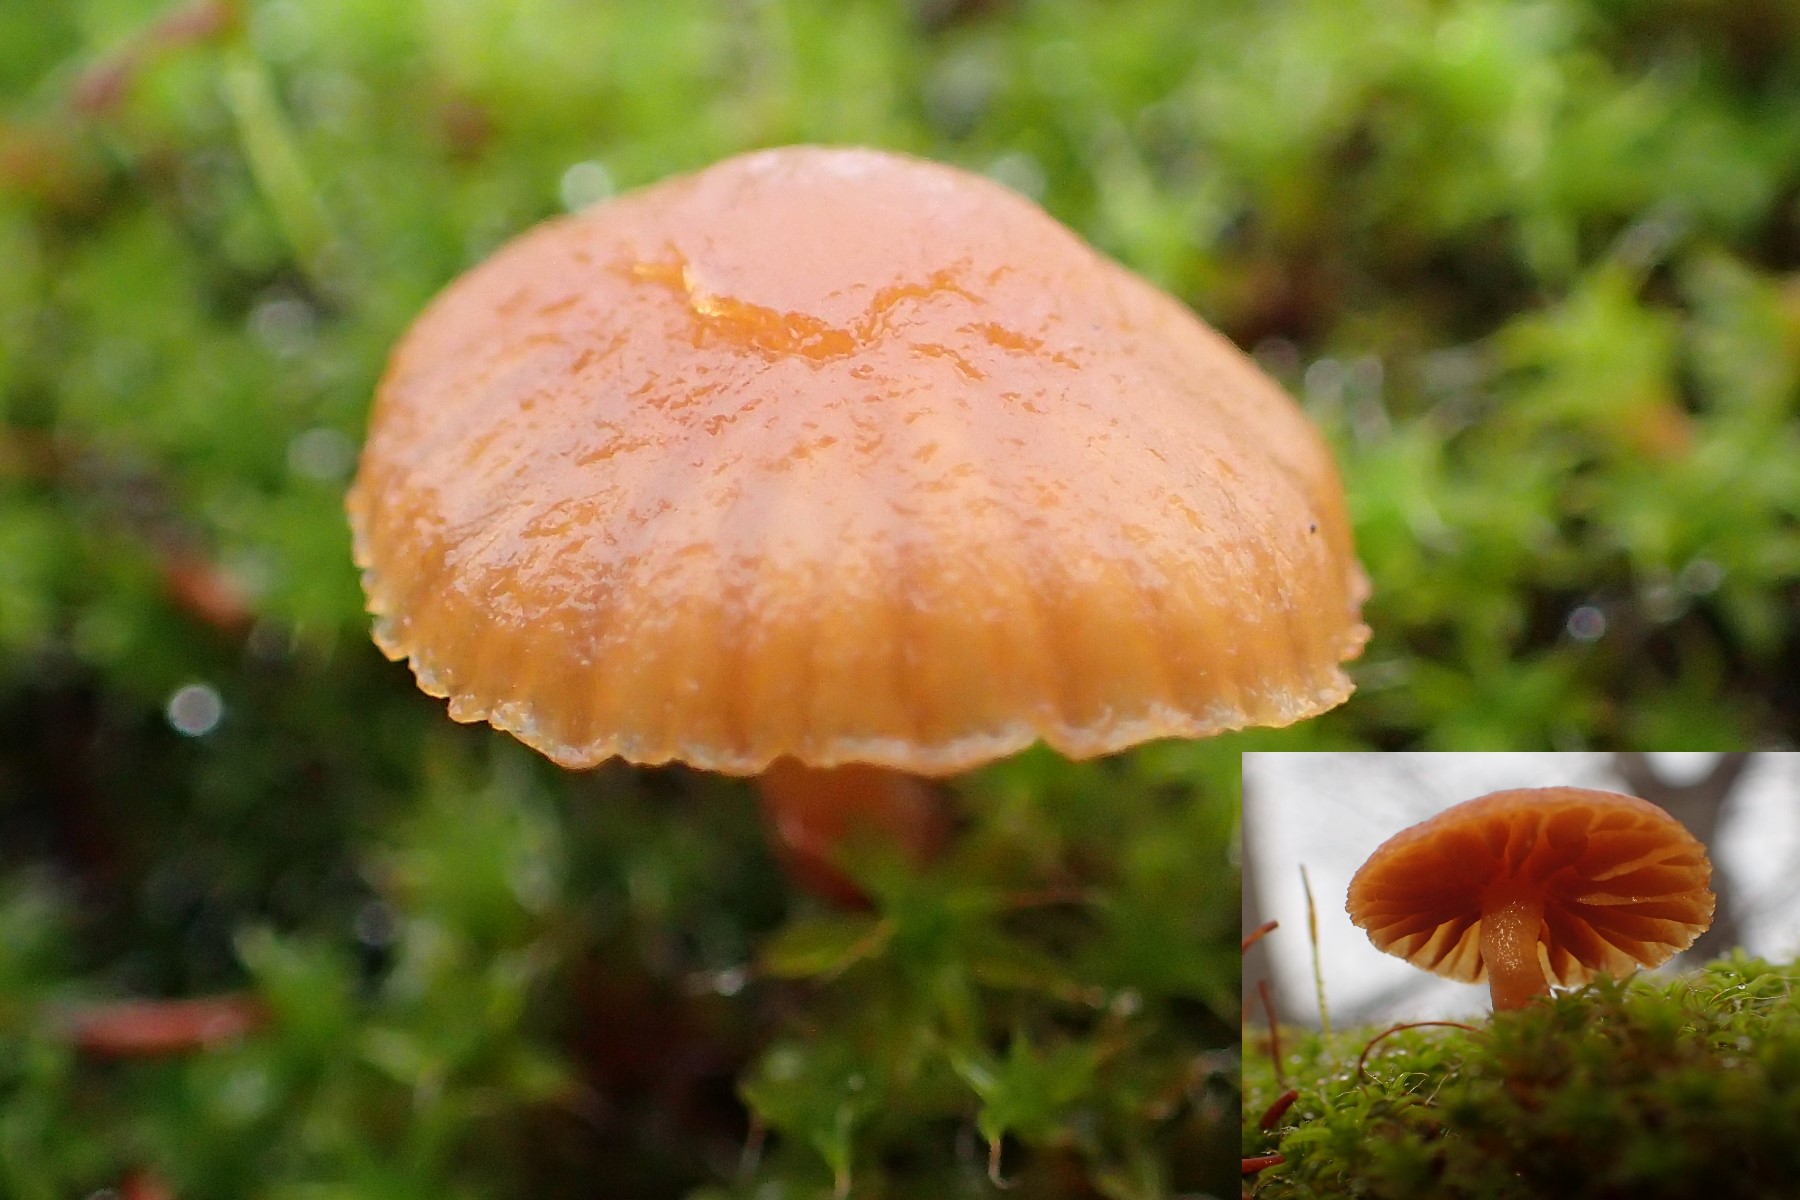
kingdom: Fungi
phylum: Basidiomycota
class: Agaricomycetes
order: Agaricales
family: Hymenogastraceae
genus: Galerina
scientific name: Galerina
